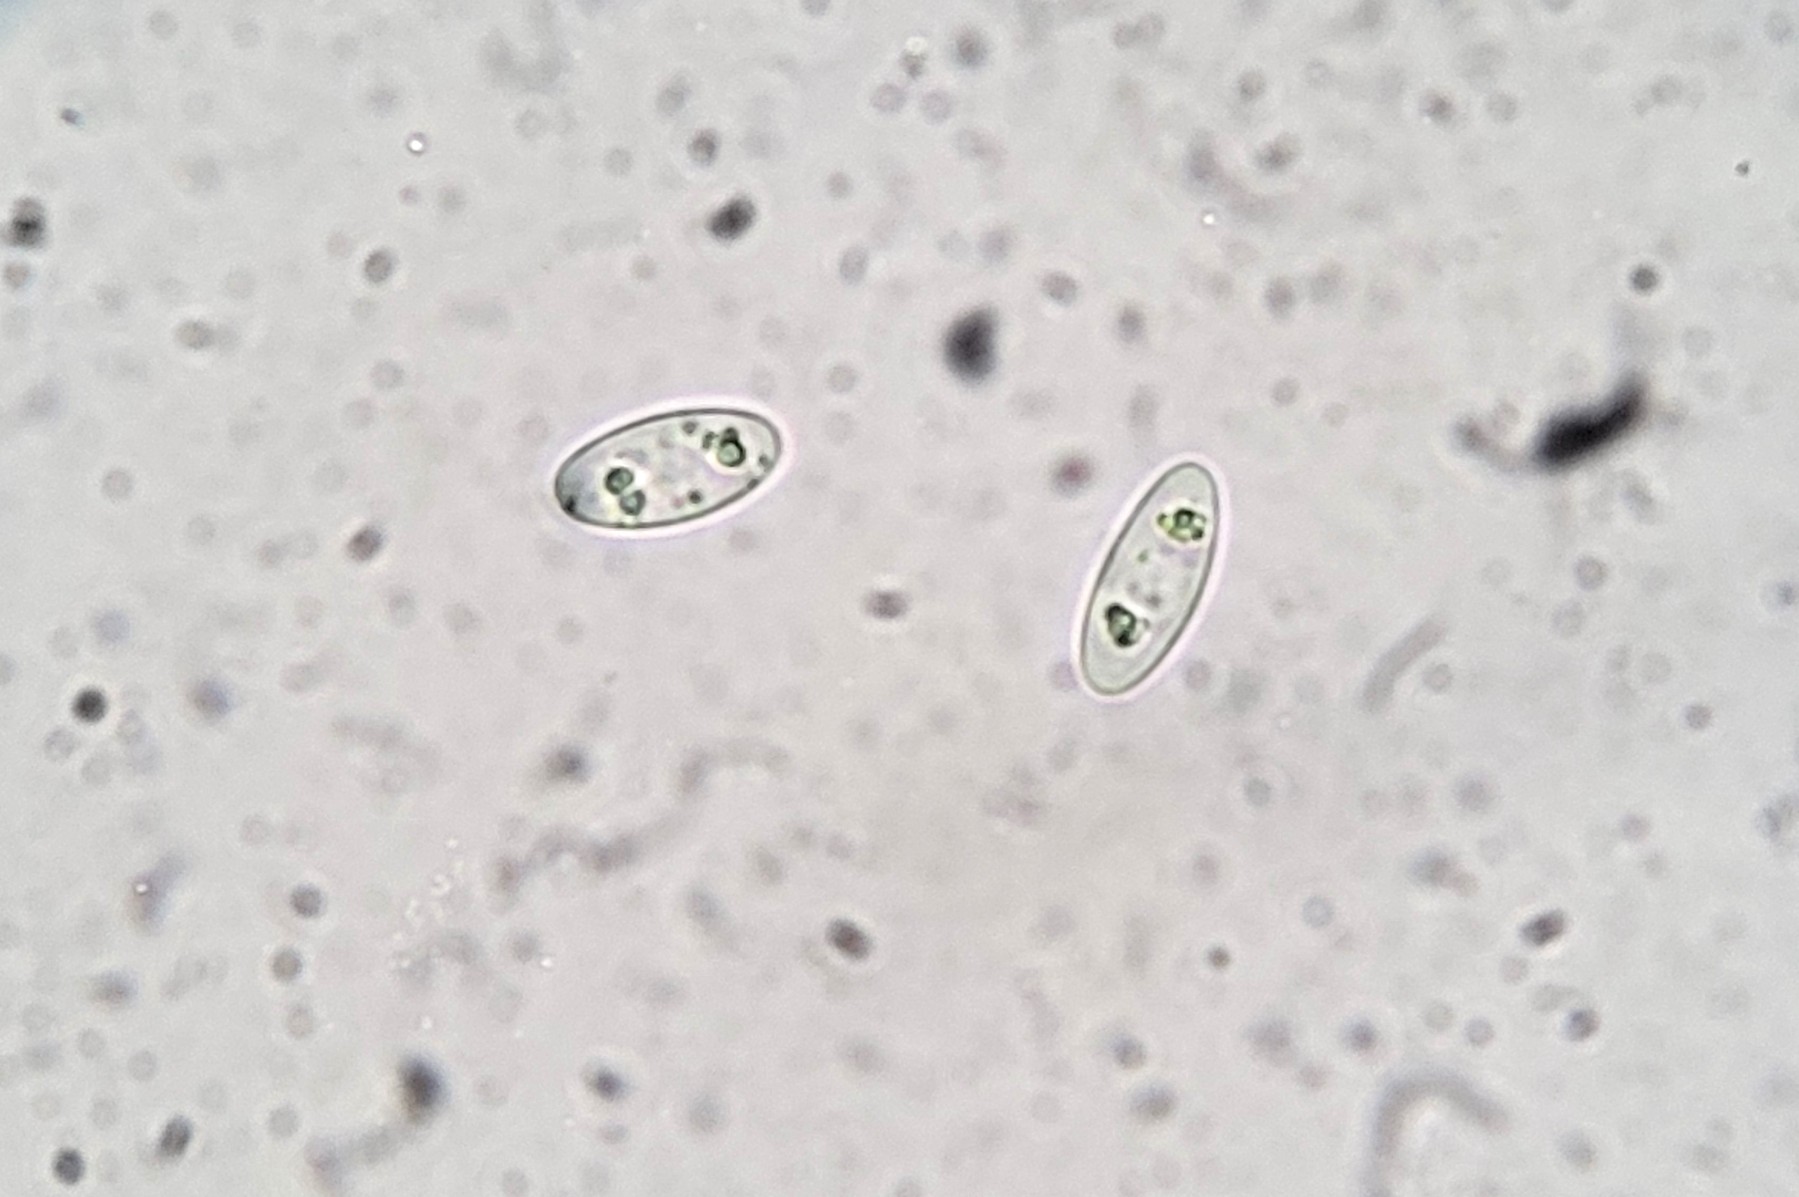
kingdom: Fungi
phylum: Ascomycota
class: Pezizomycetes
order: Pezizales
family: Discinaceae
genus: Gyromitra
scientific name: Gyromitra esculenta
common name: ægte stenmorkel
